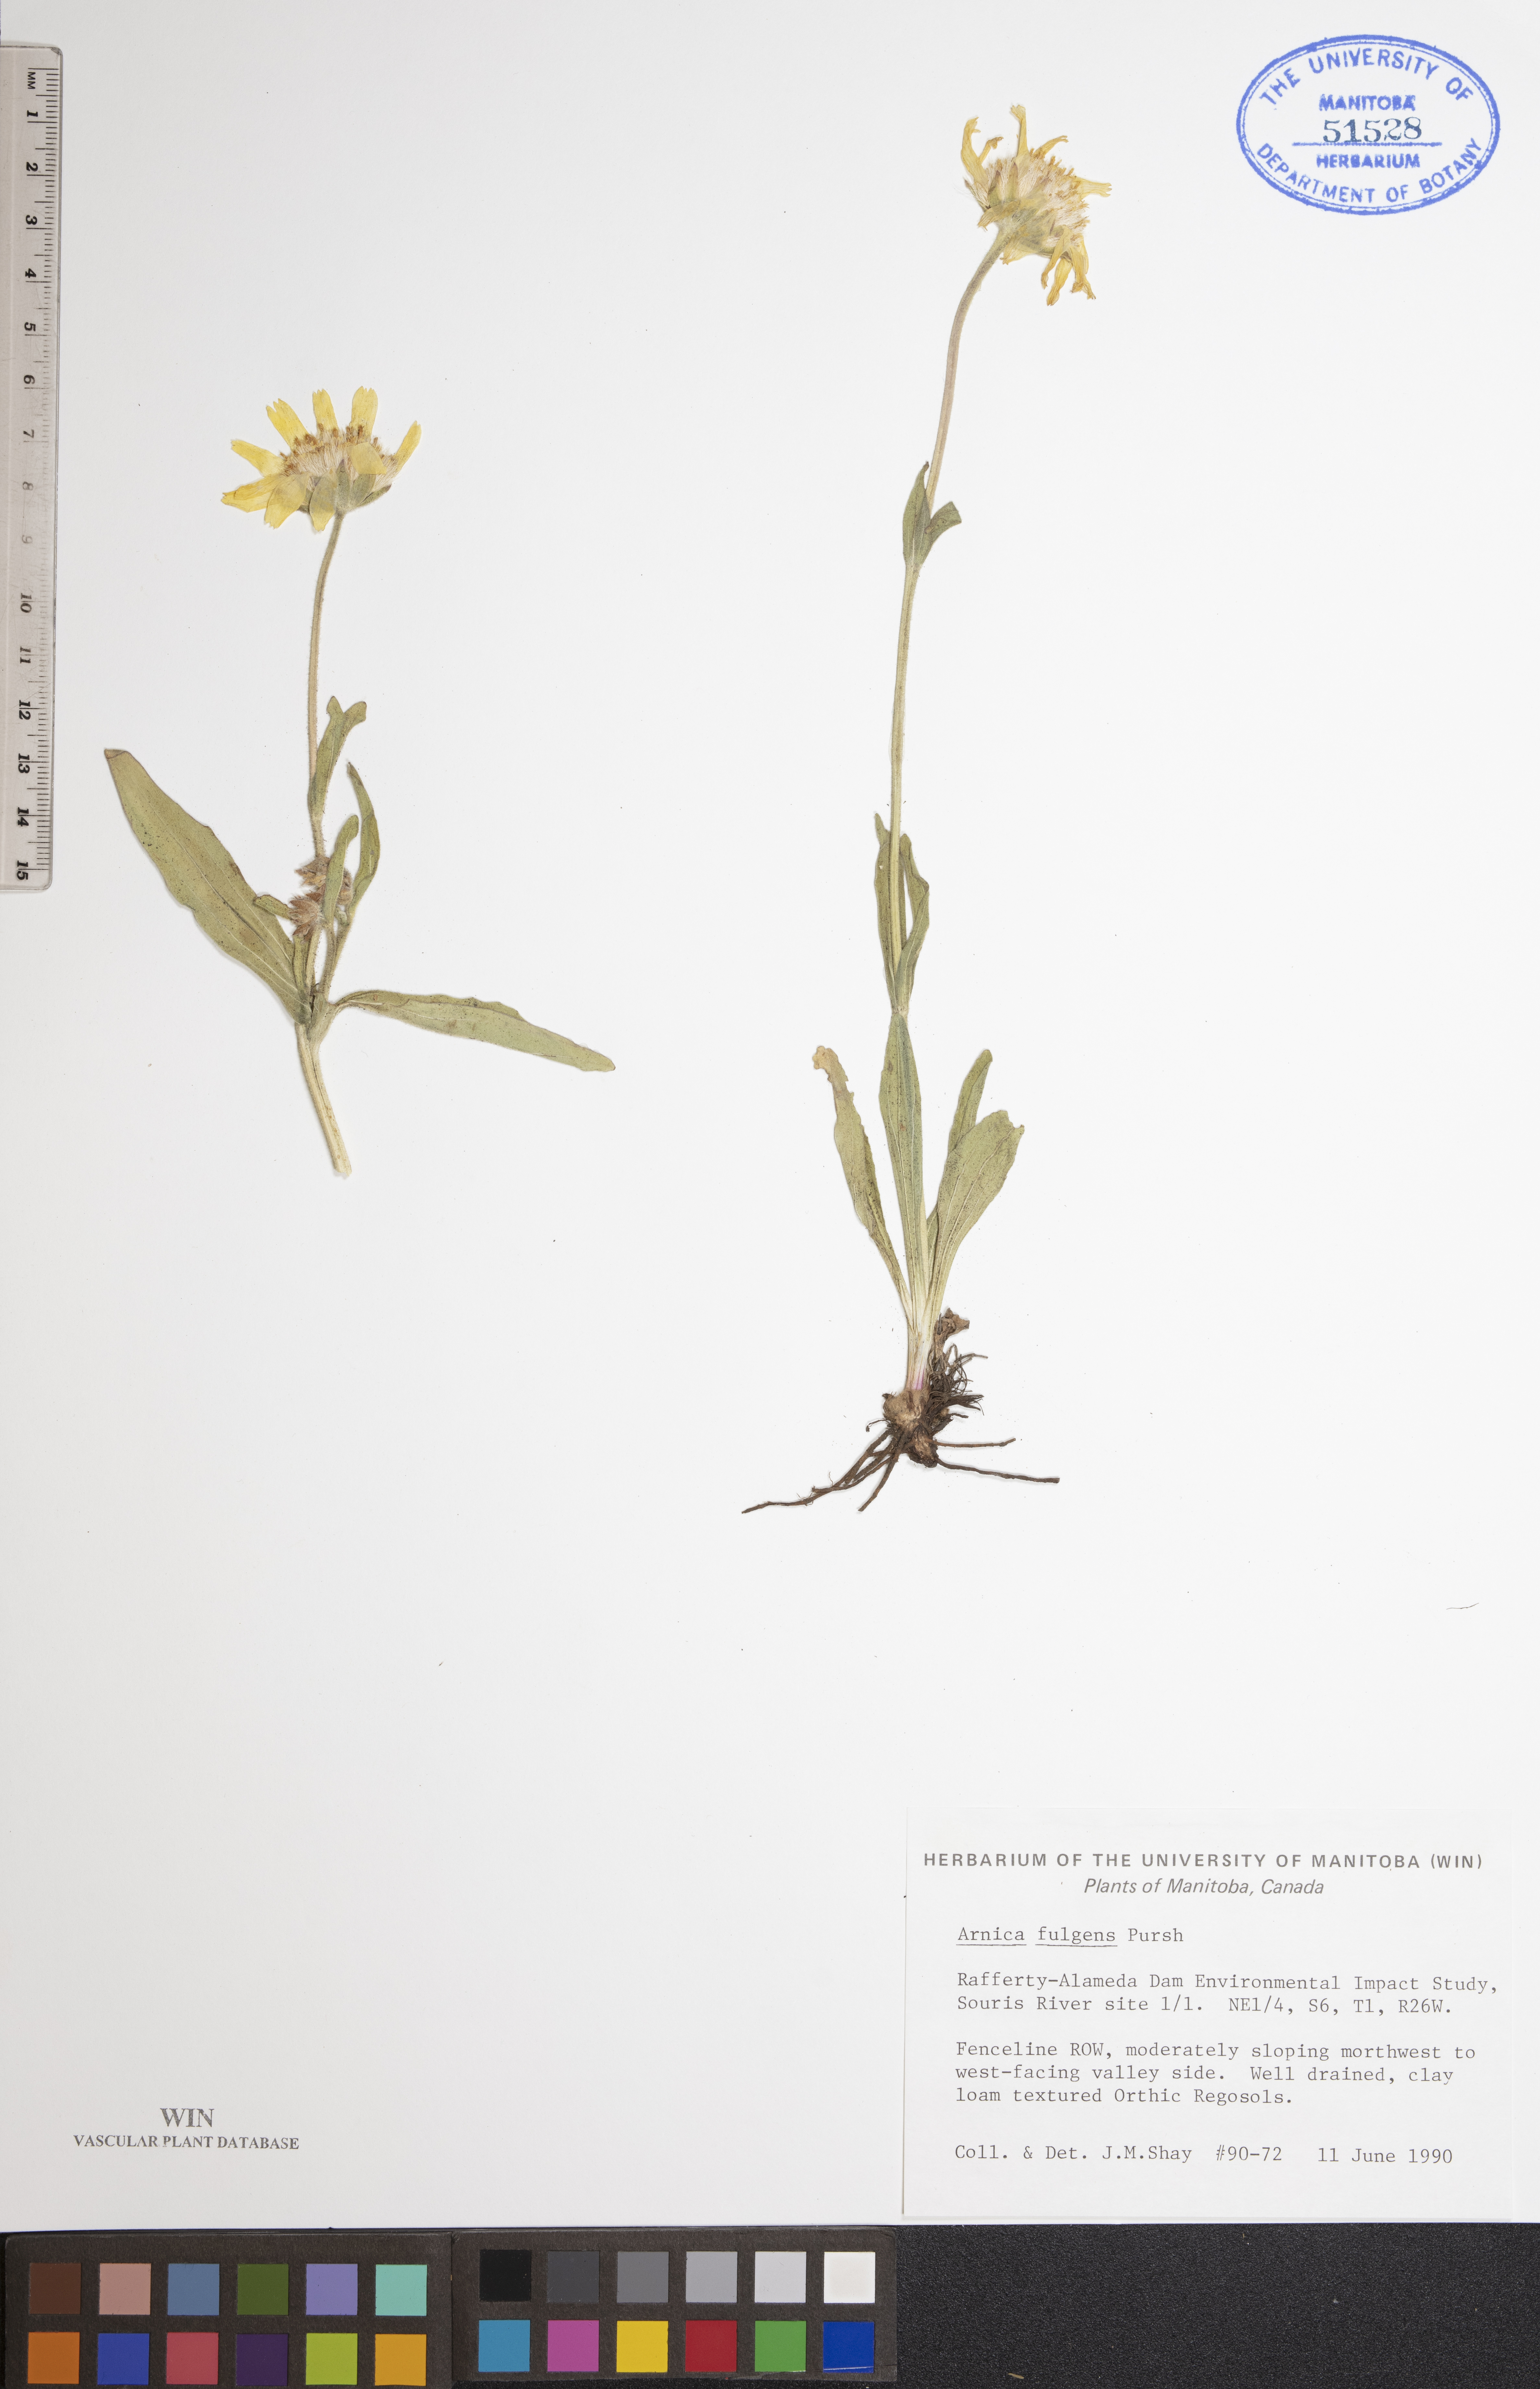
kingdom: Plantae
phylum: Tracheophyta
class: Magnoliopsida
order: Asterales
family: Asteraceae
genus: Arnica
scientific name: Arnica fulgens
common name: Foothill arnica
